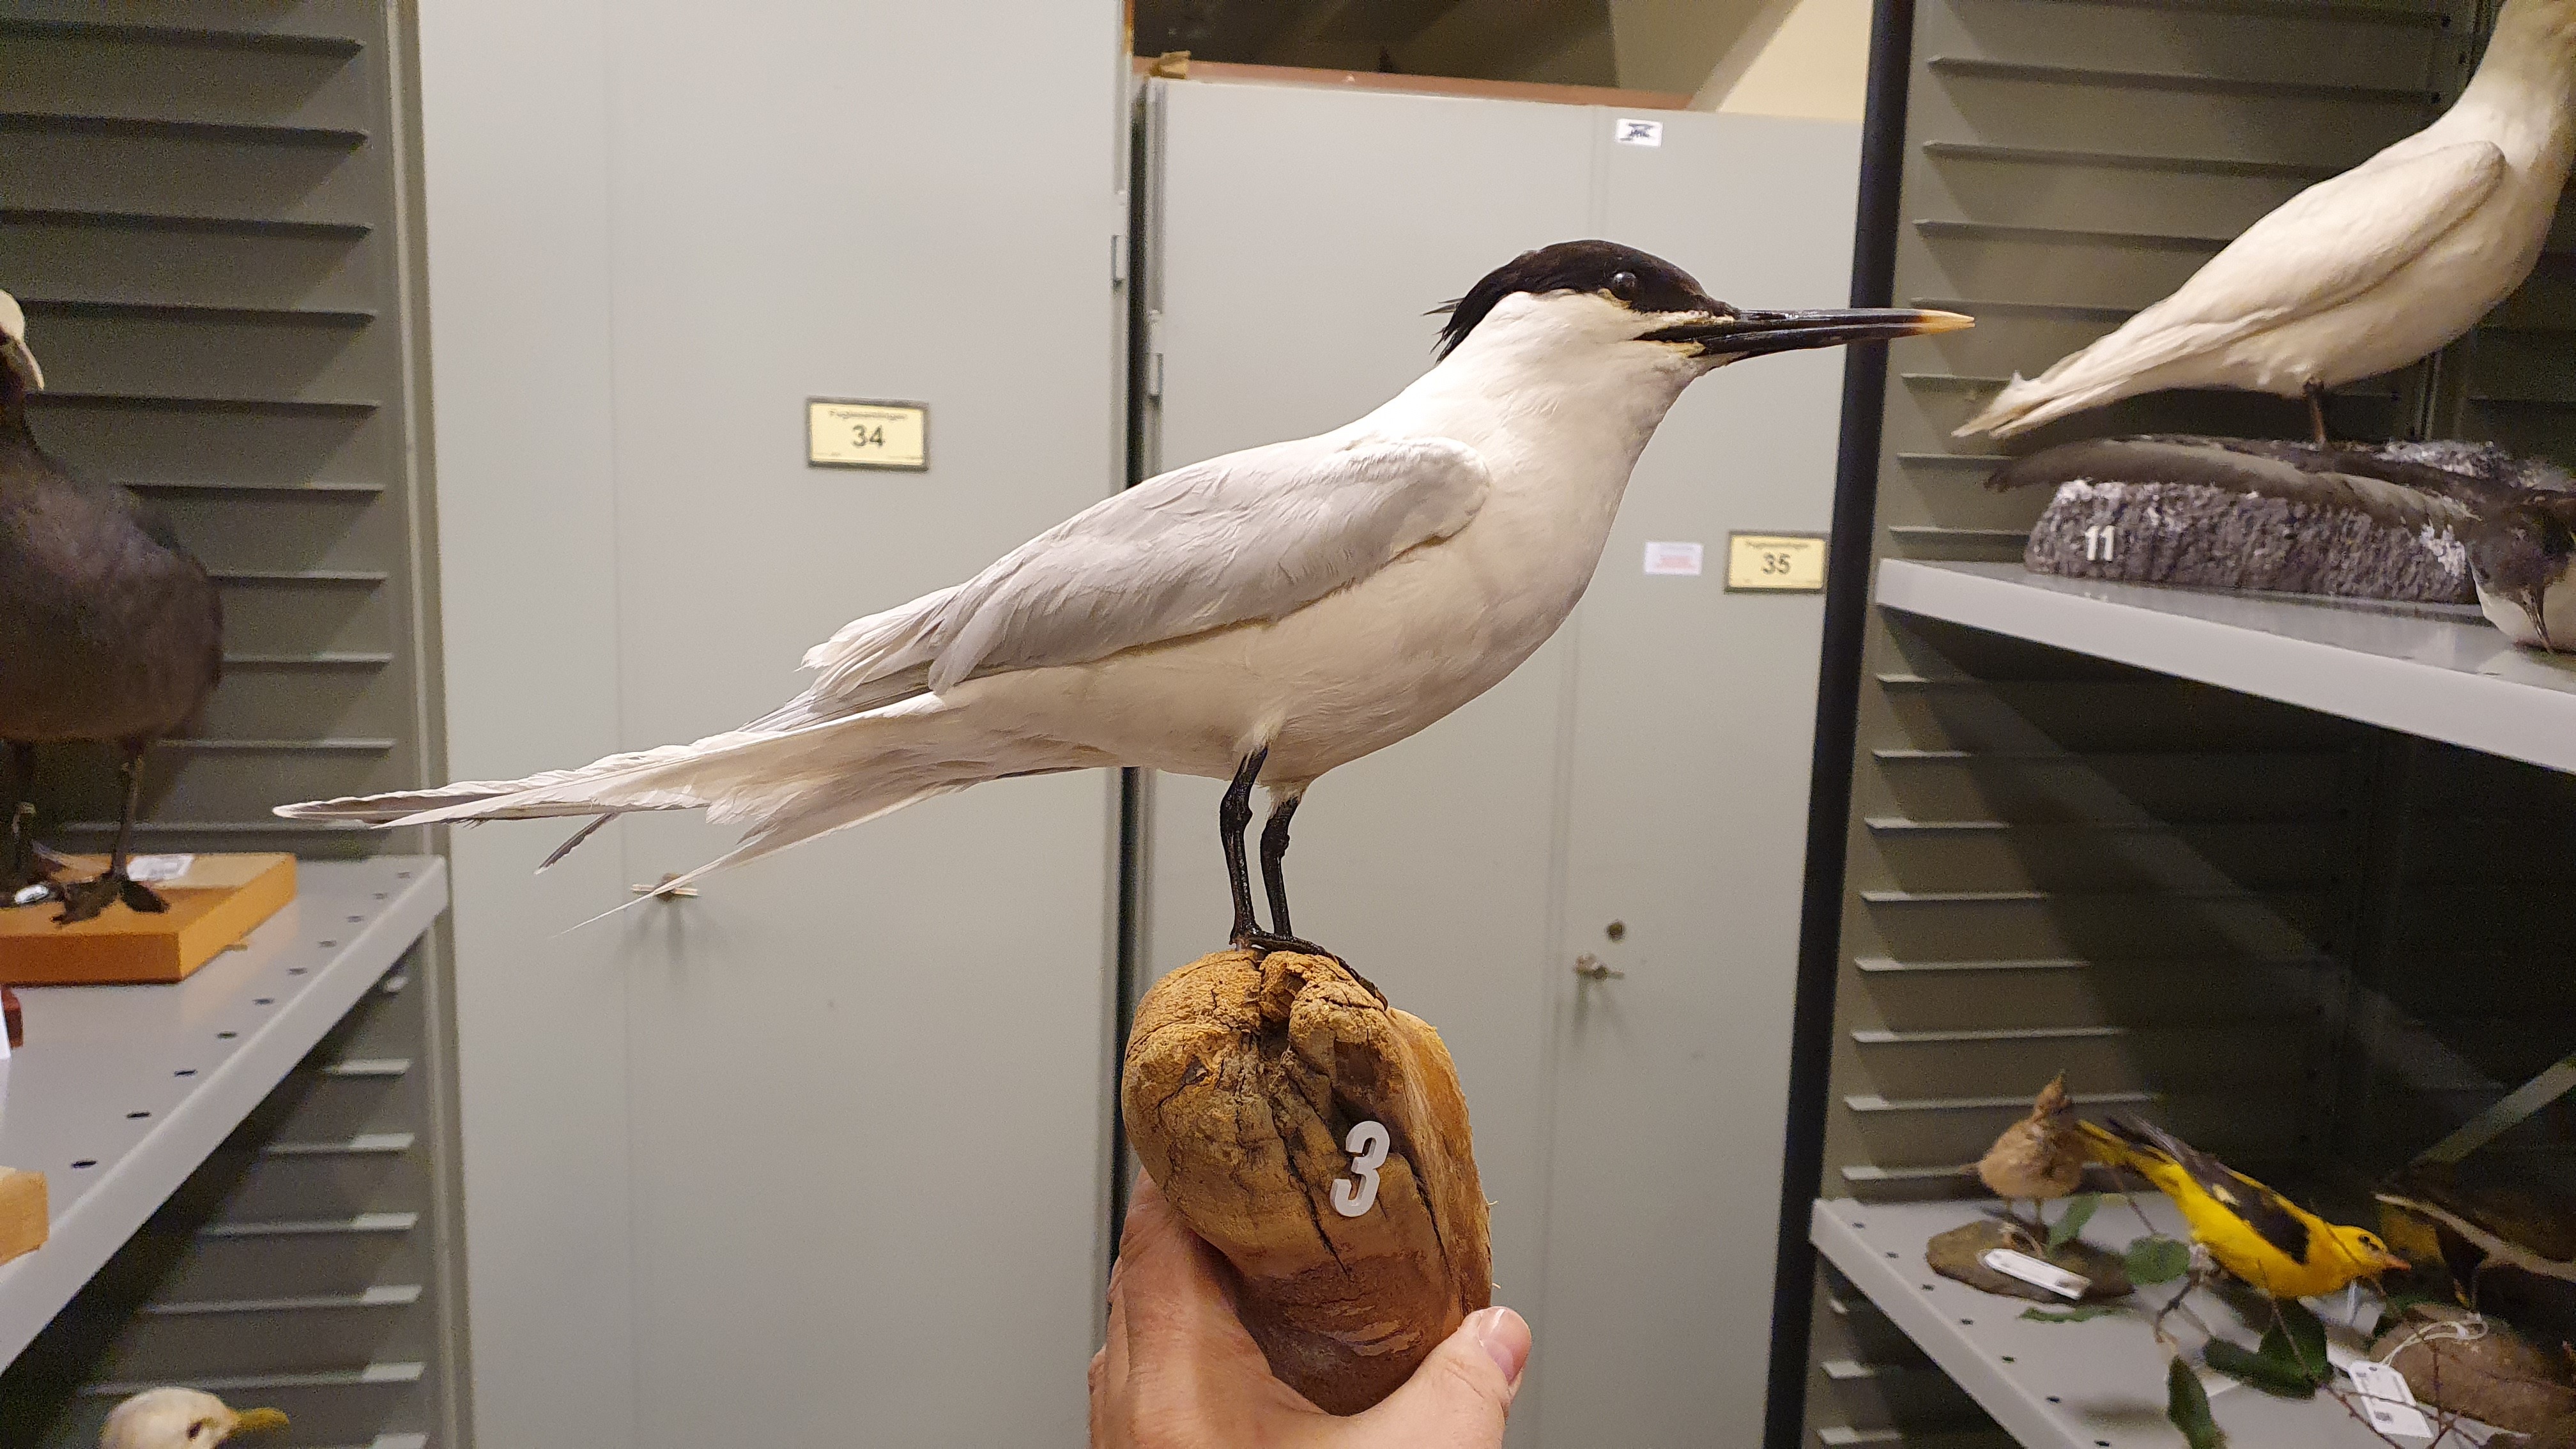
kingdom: Animalia
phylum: Chordata
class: Aves
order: Charadriiformes
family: Laridae
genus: Thalasseus
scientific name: Thalasseus sandvicensis
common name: Sandwich tern
